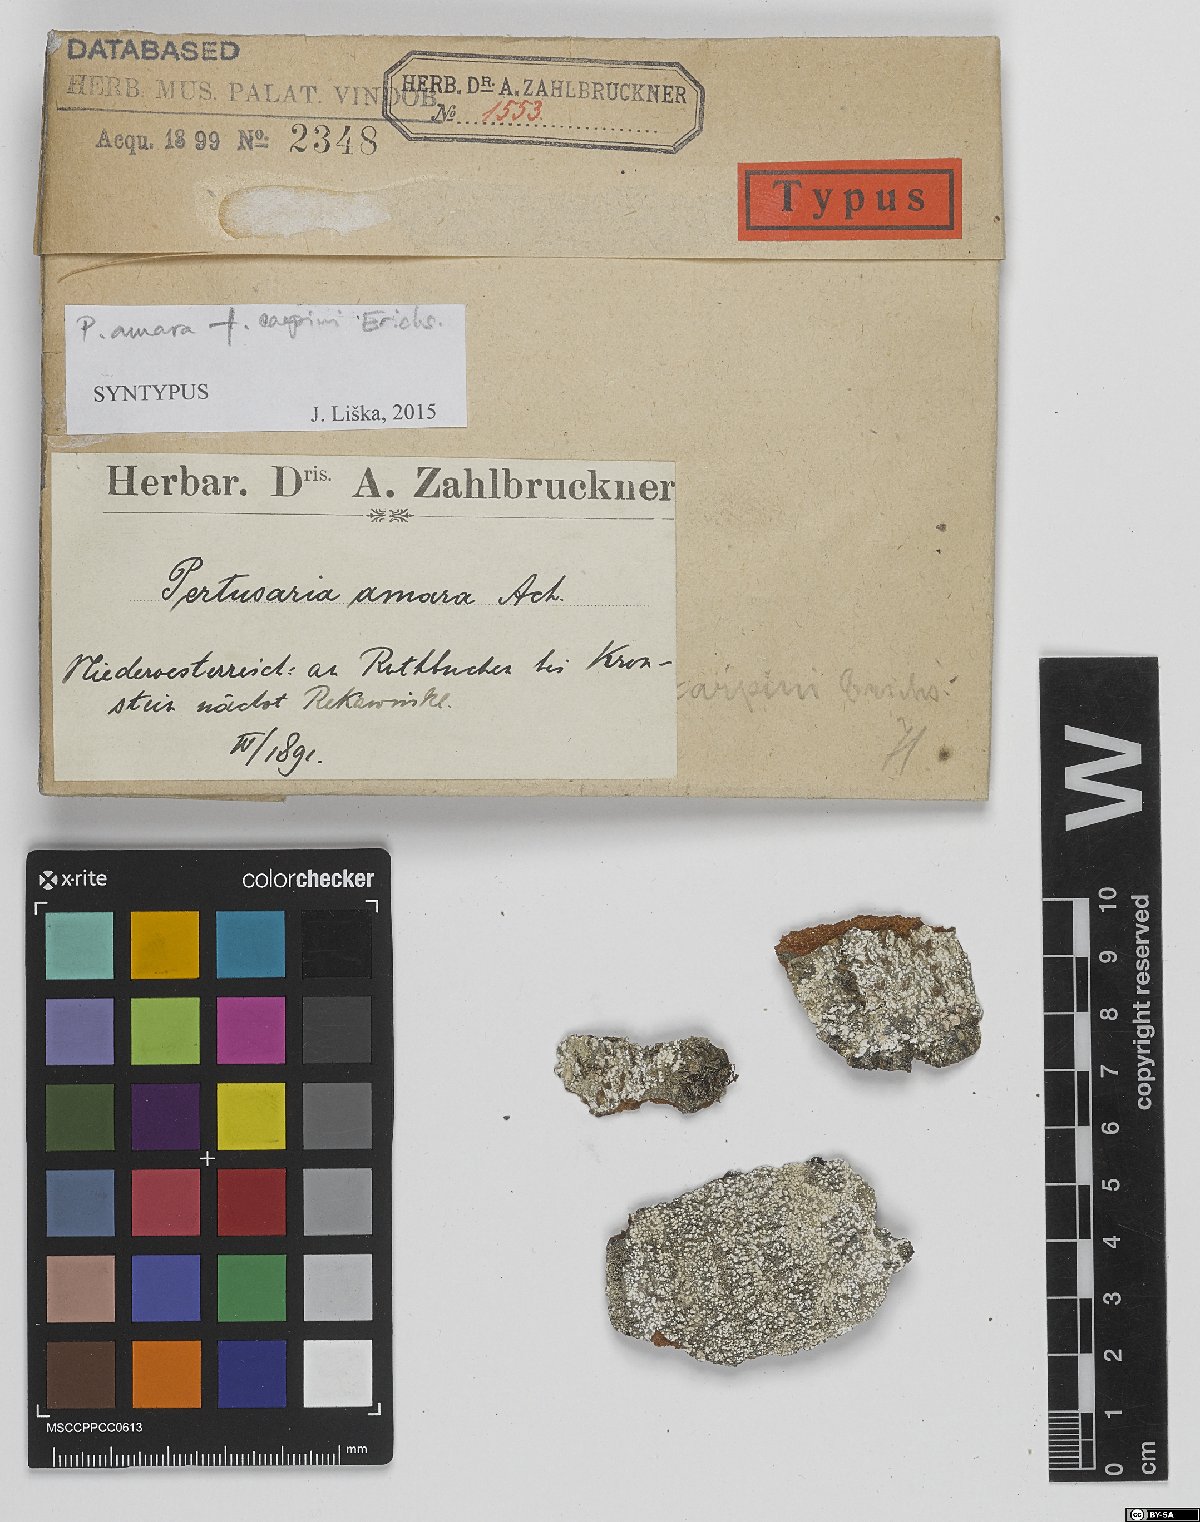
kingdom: Fungi
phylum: Ascomycota
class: Lecanoromycetes
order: Pertusariales
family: Pertusariaceae
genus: Lepra
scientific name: Lepra amara
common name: Bitter wart lichen
